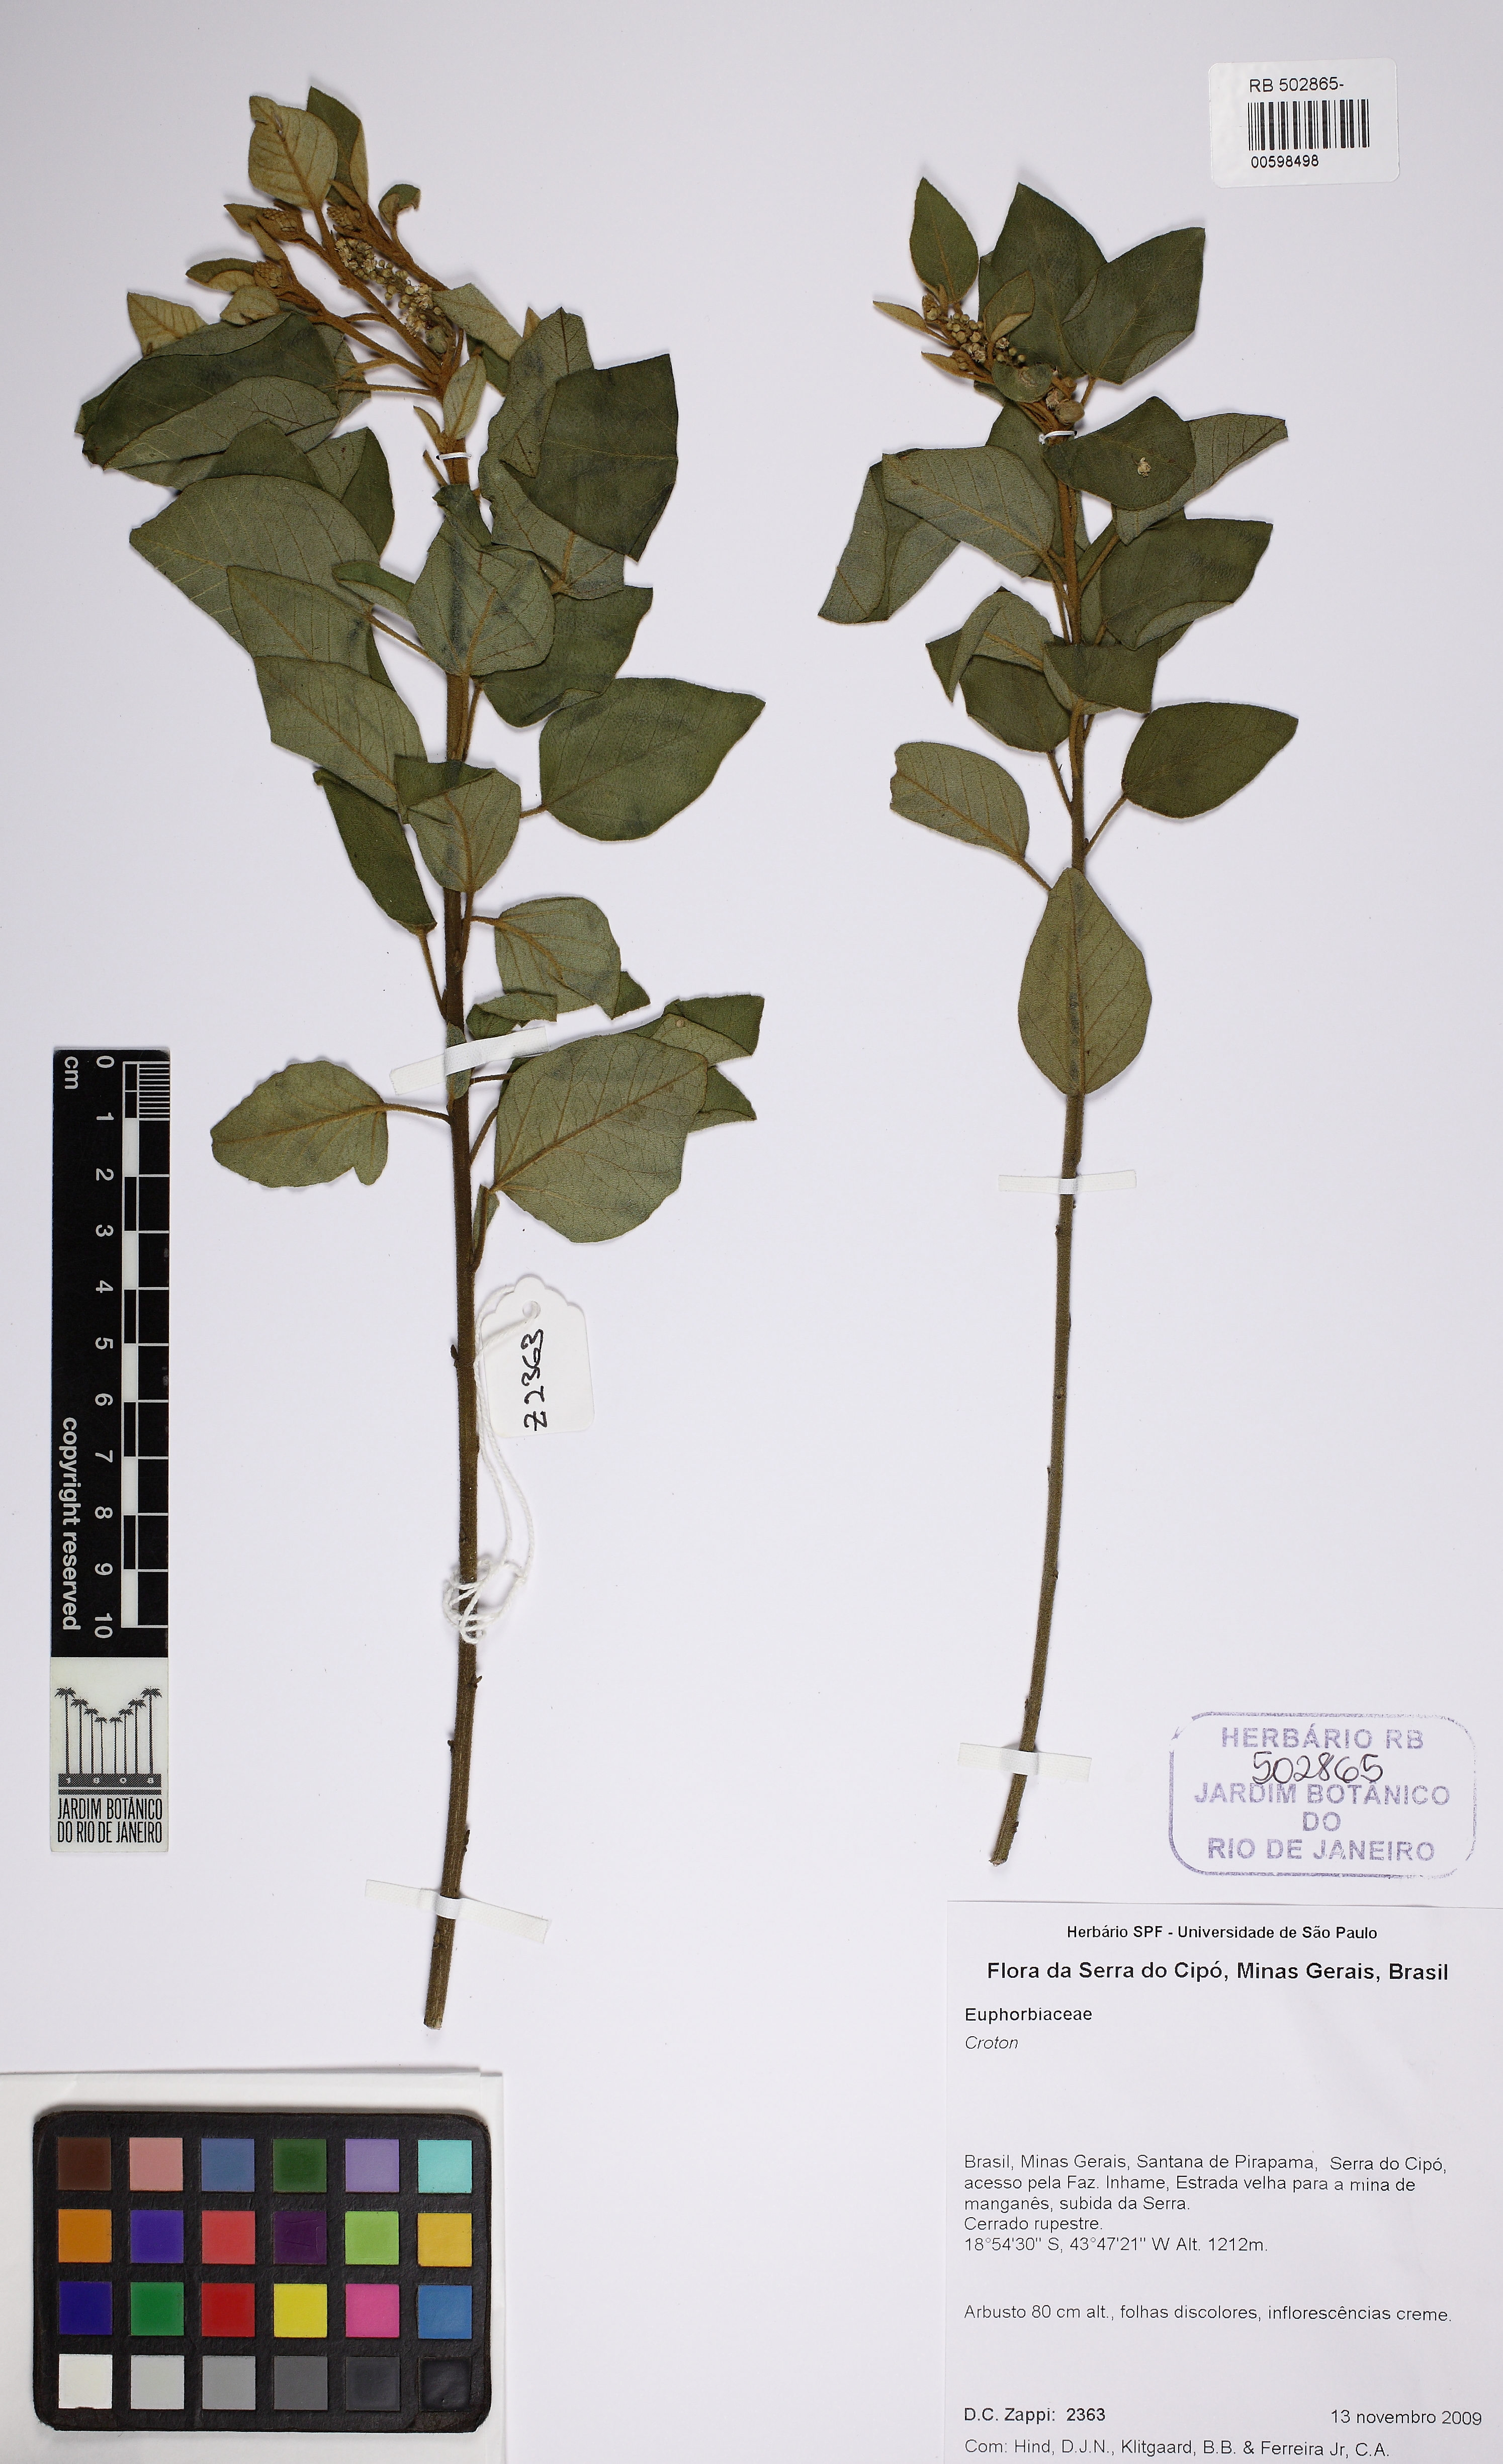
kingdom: Plantae
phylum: Tracheophyta
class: Magnoliopsida
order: Malpighiales
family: Euphorbiaceae
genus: Croton
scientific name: Croton
